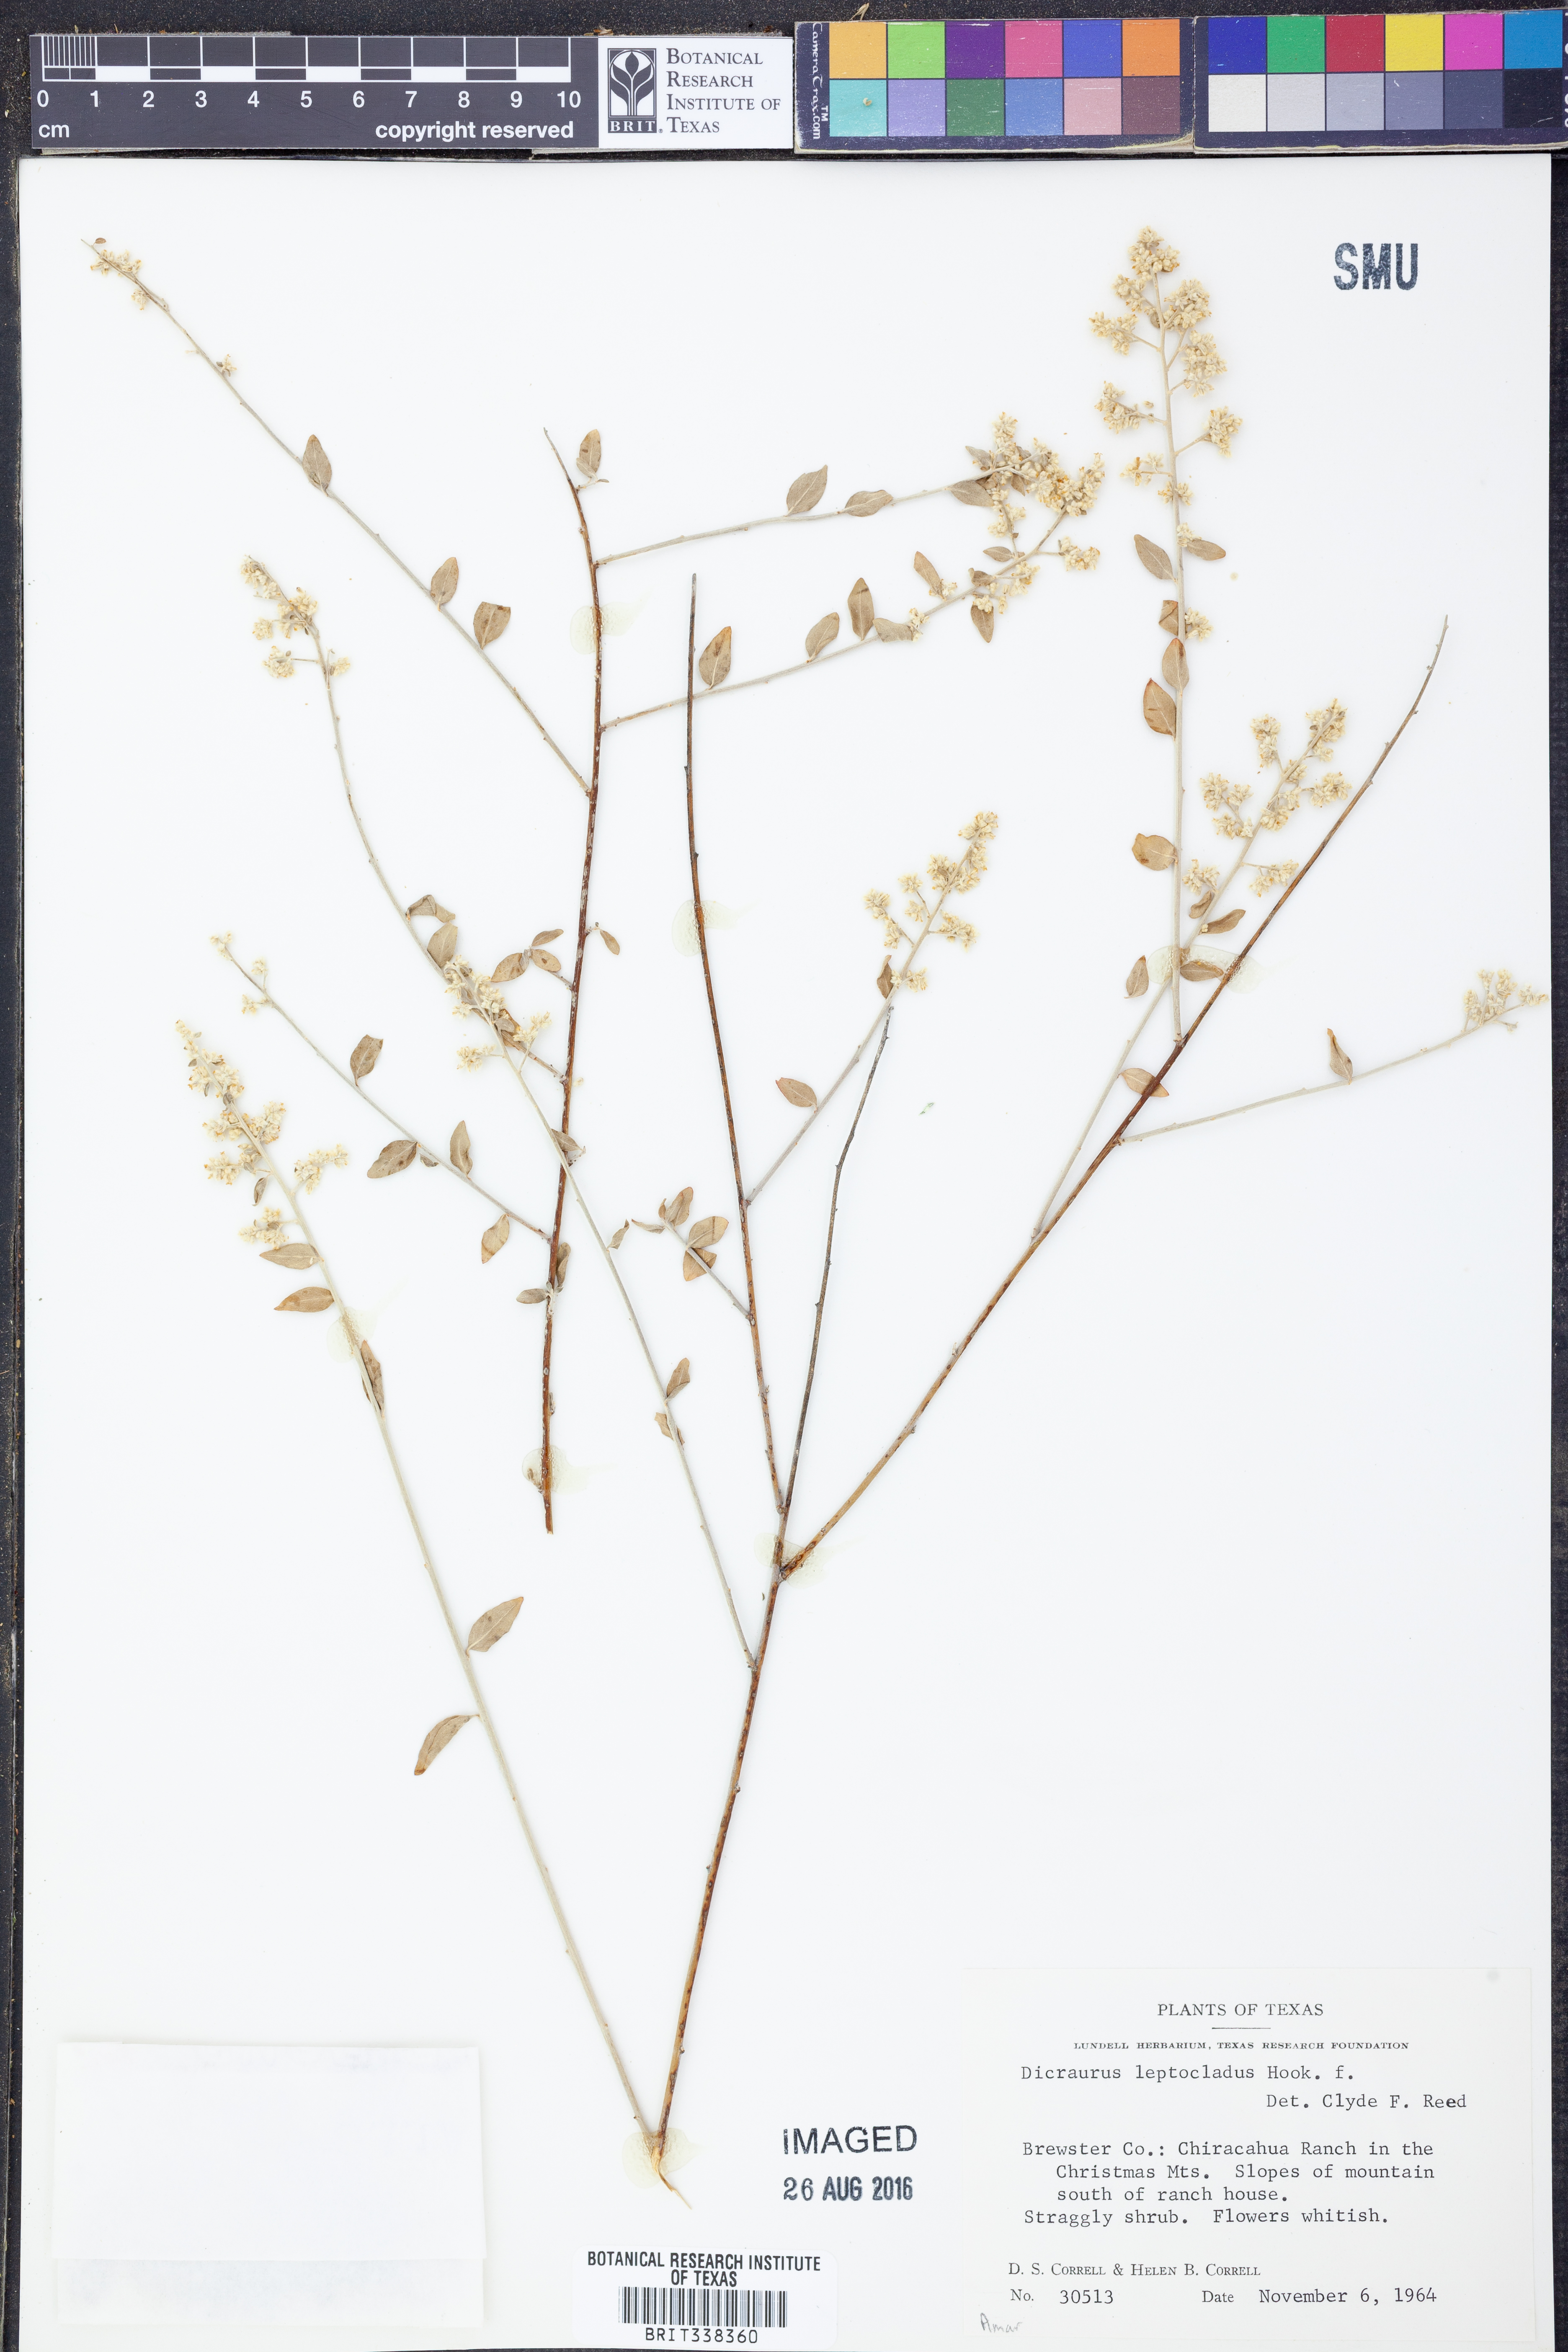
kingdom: Plantae
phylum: Tracheophyta
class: Magnoliopsida
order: Caryophyllales
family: Amaranthaceae
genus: Iresine
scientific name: Iresine leptoclada
